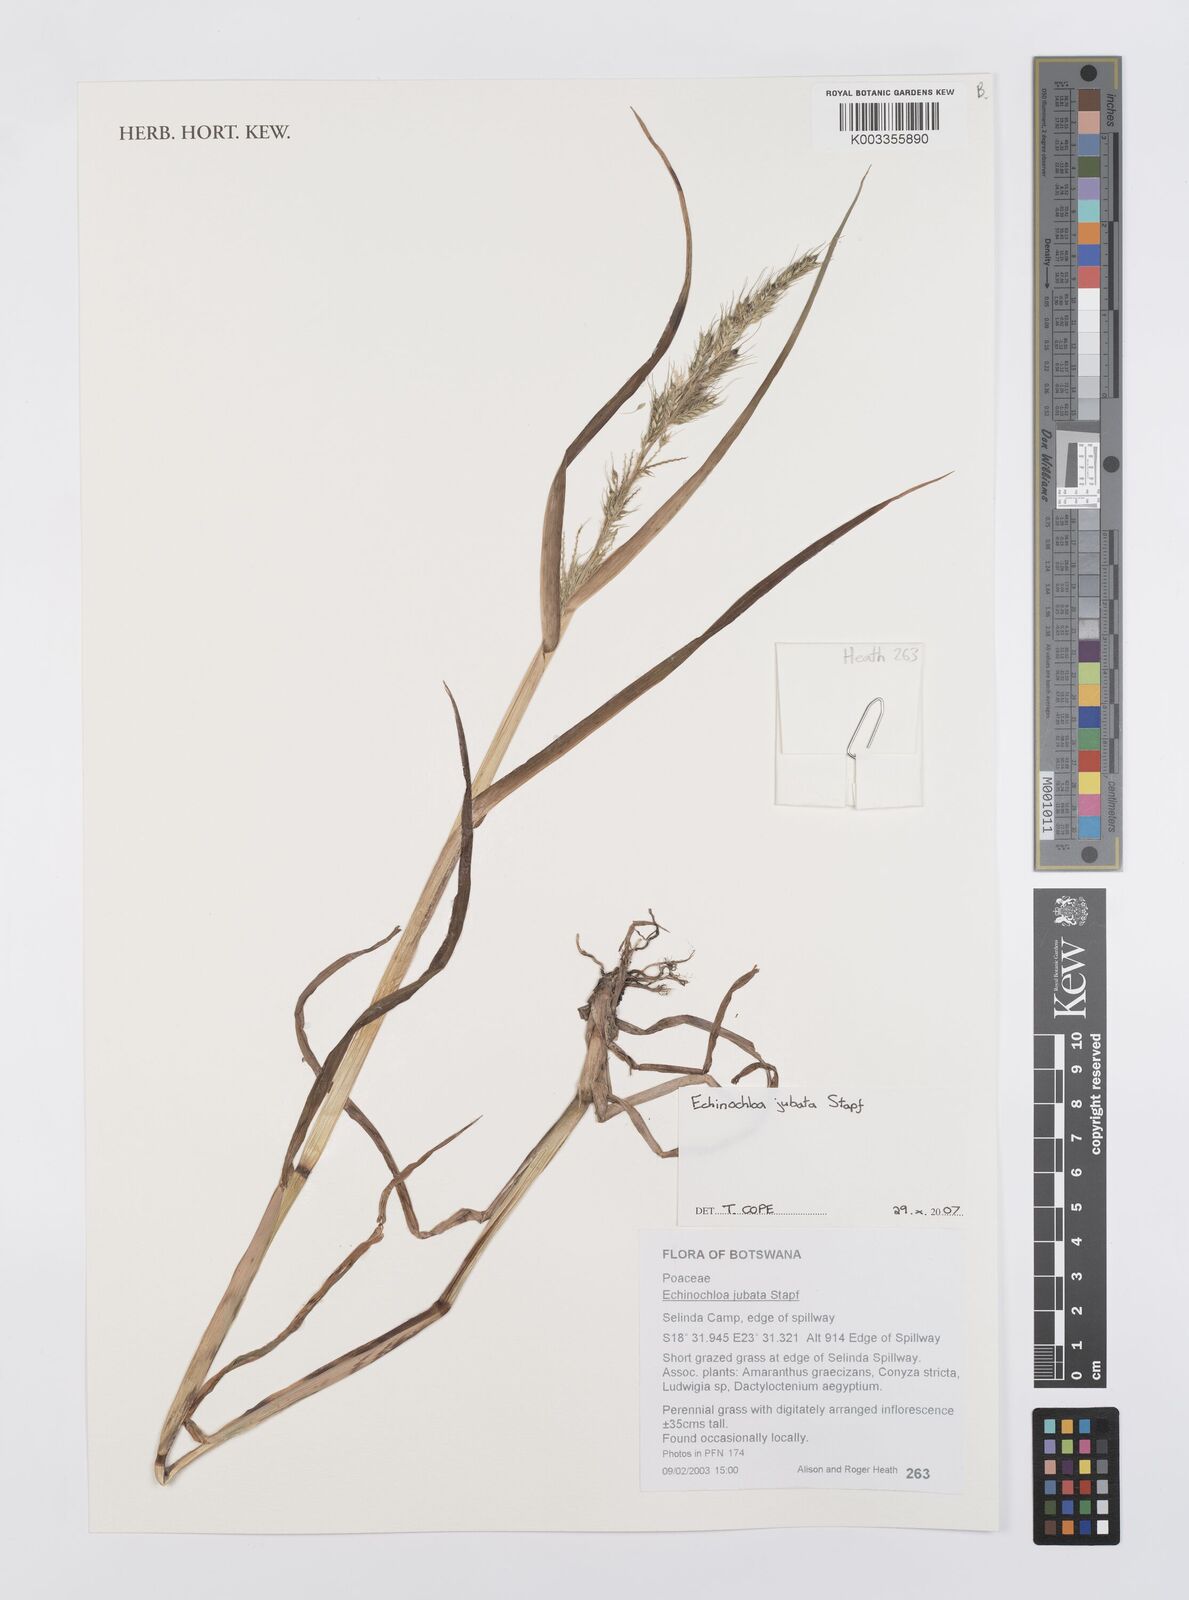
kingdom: Plantae
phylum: Tracheophyta
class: Liliopsida
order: Poales
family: Poaceae
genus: Echinochloa
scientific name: Echinochloa jubata
